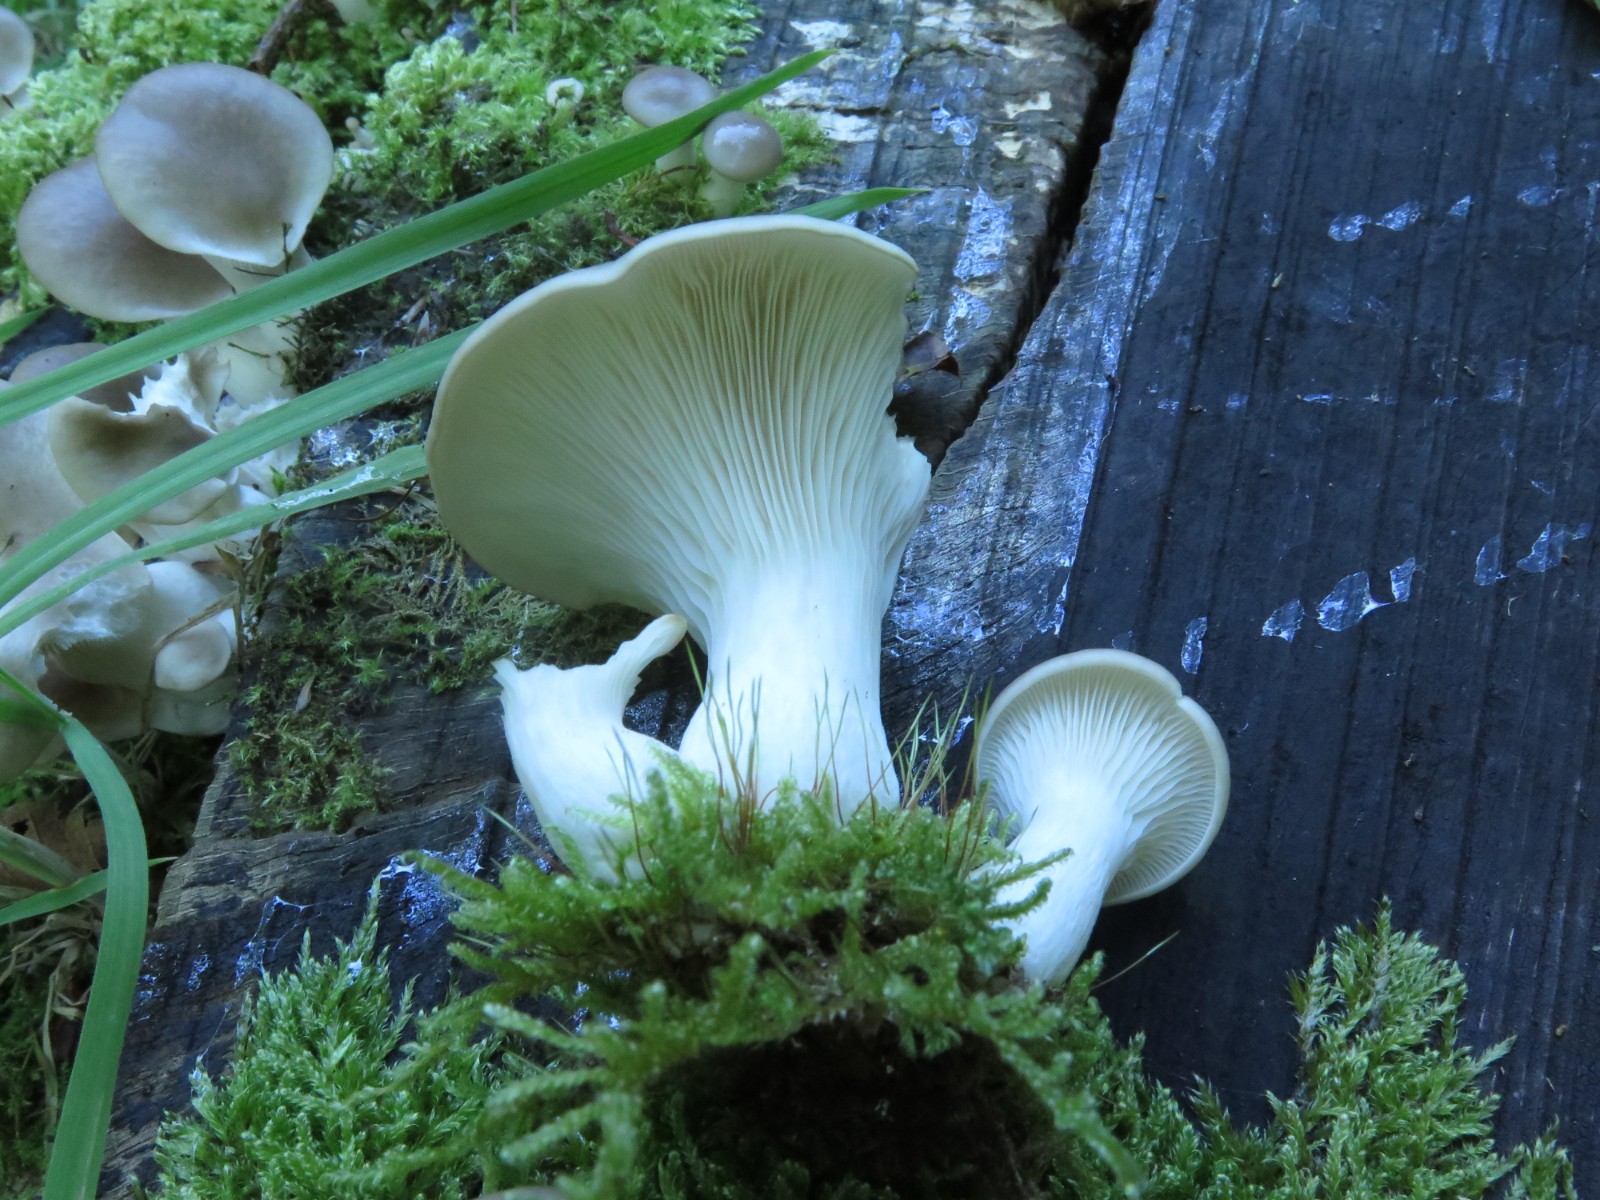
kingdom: Fungi
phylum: Basidiomycota
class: Agaricomycetes
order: Agaricales
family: Pleurotaceae
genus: Pleurotus
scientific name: Pleurotus pulmonarius
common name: sommer-østershat
